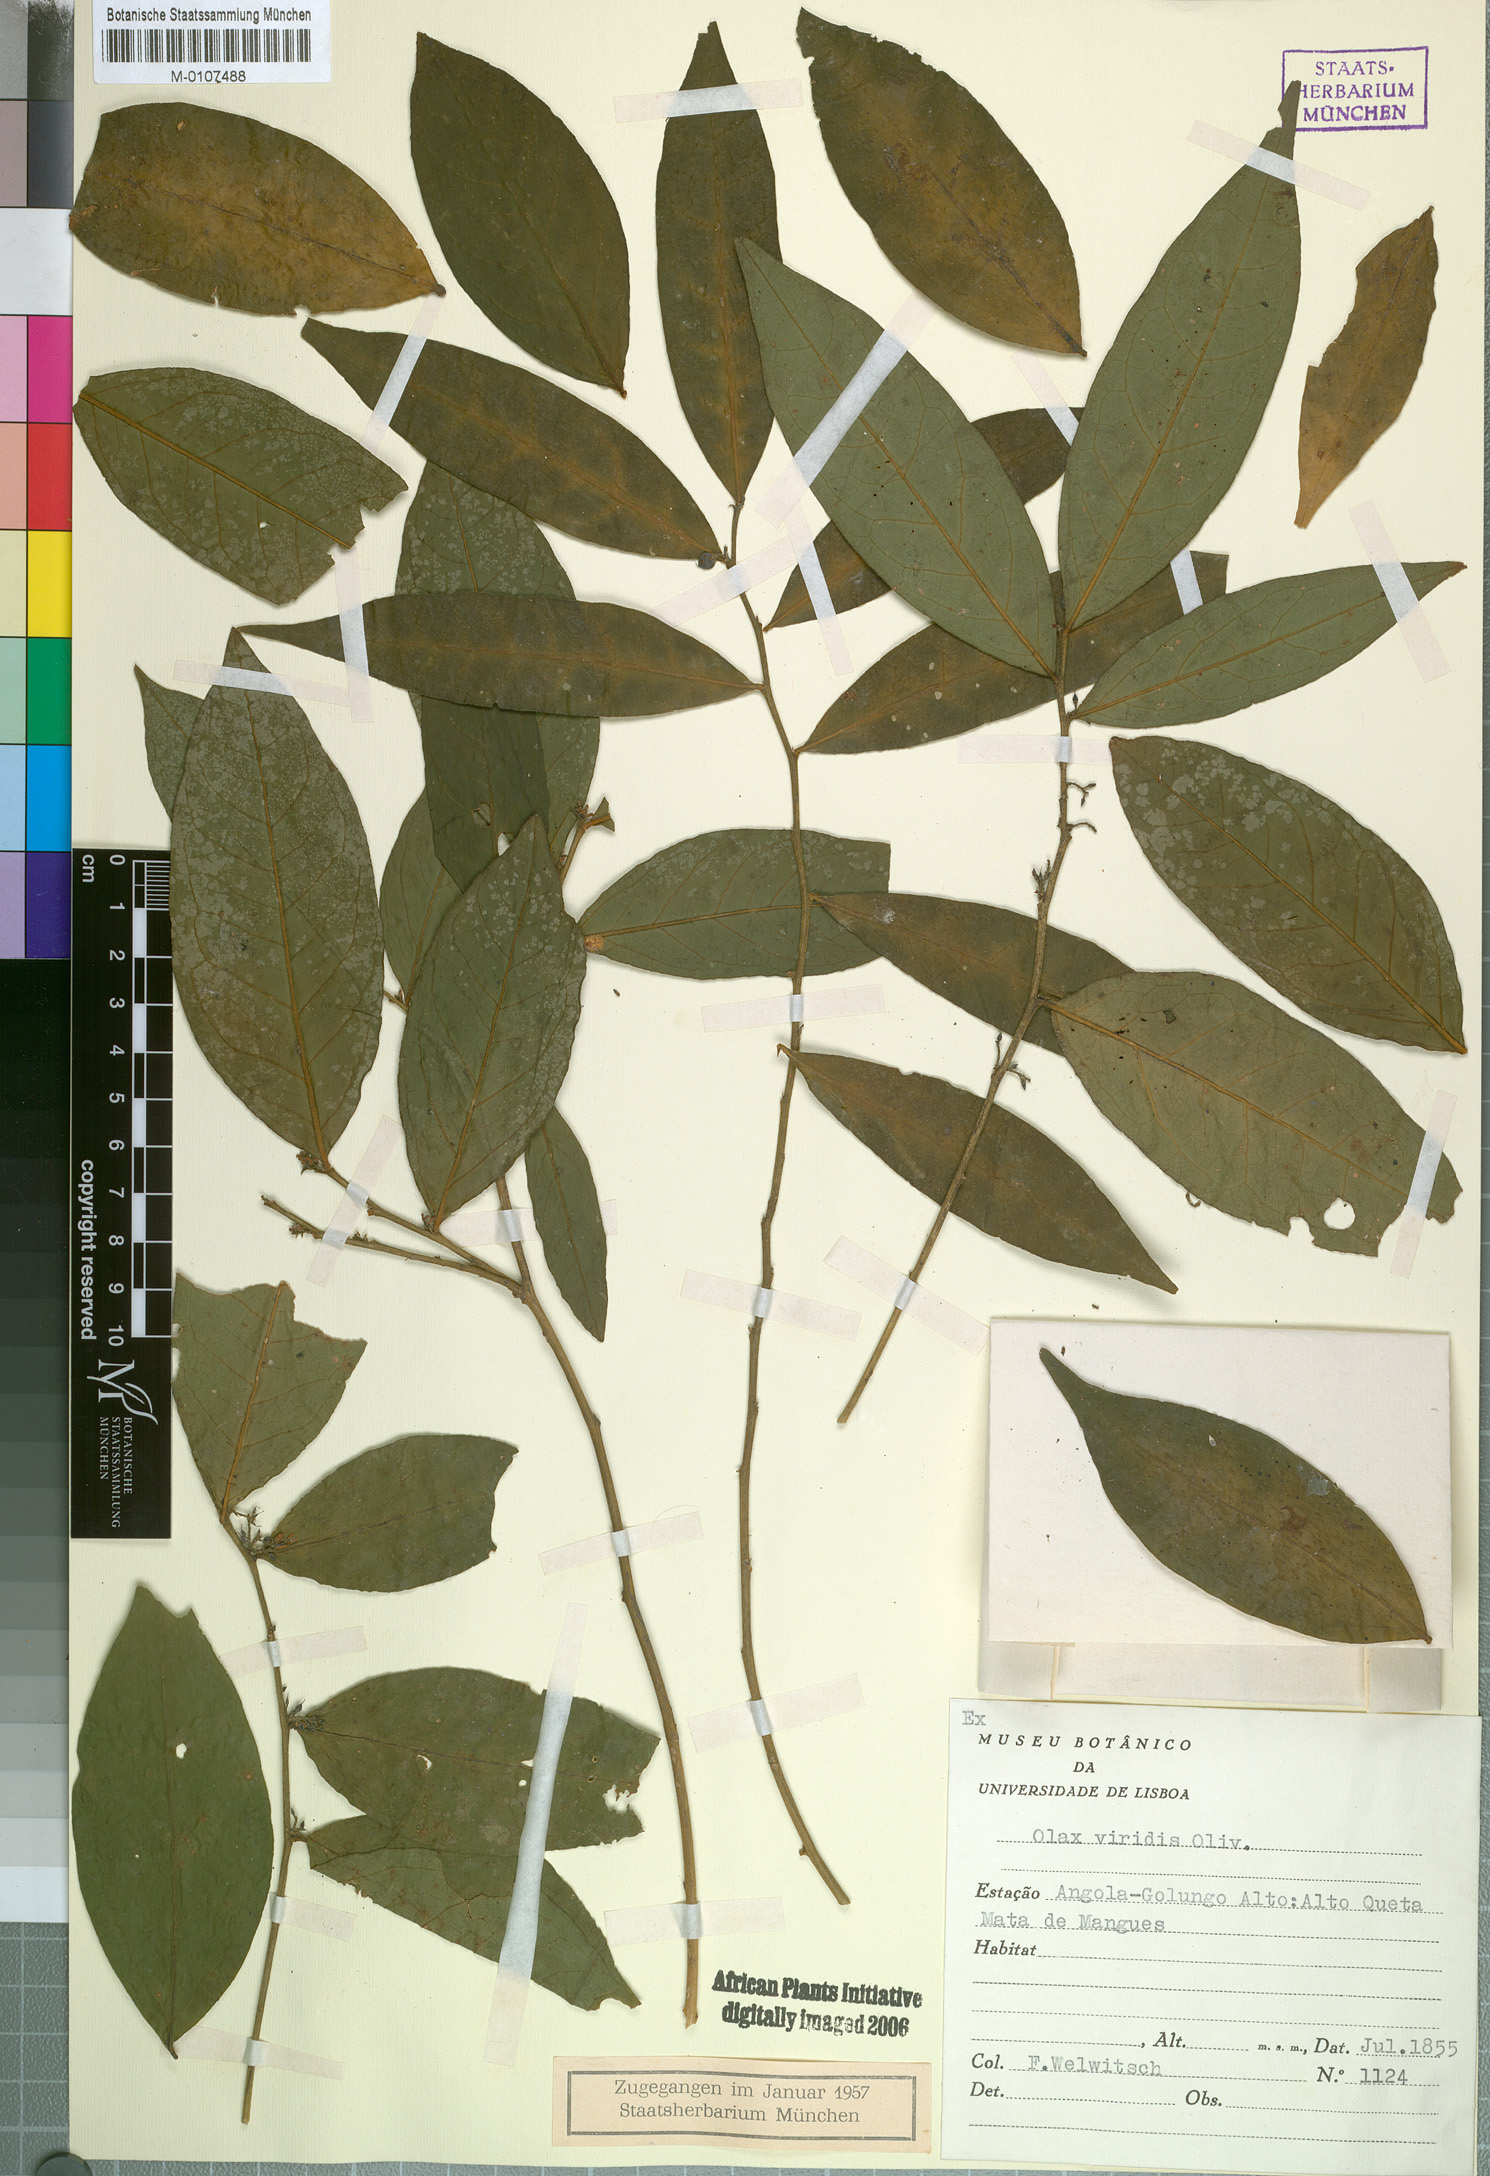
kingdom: Plantae
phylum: Tracheophyta
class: Magnoliopsida
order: Santalales
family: Olacaceae
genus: Olax
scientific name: Olax gambecola
